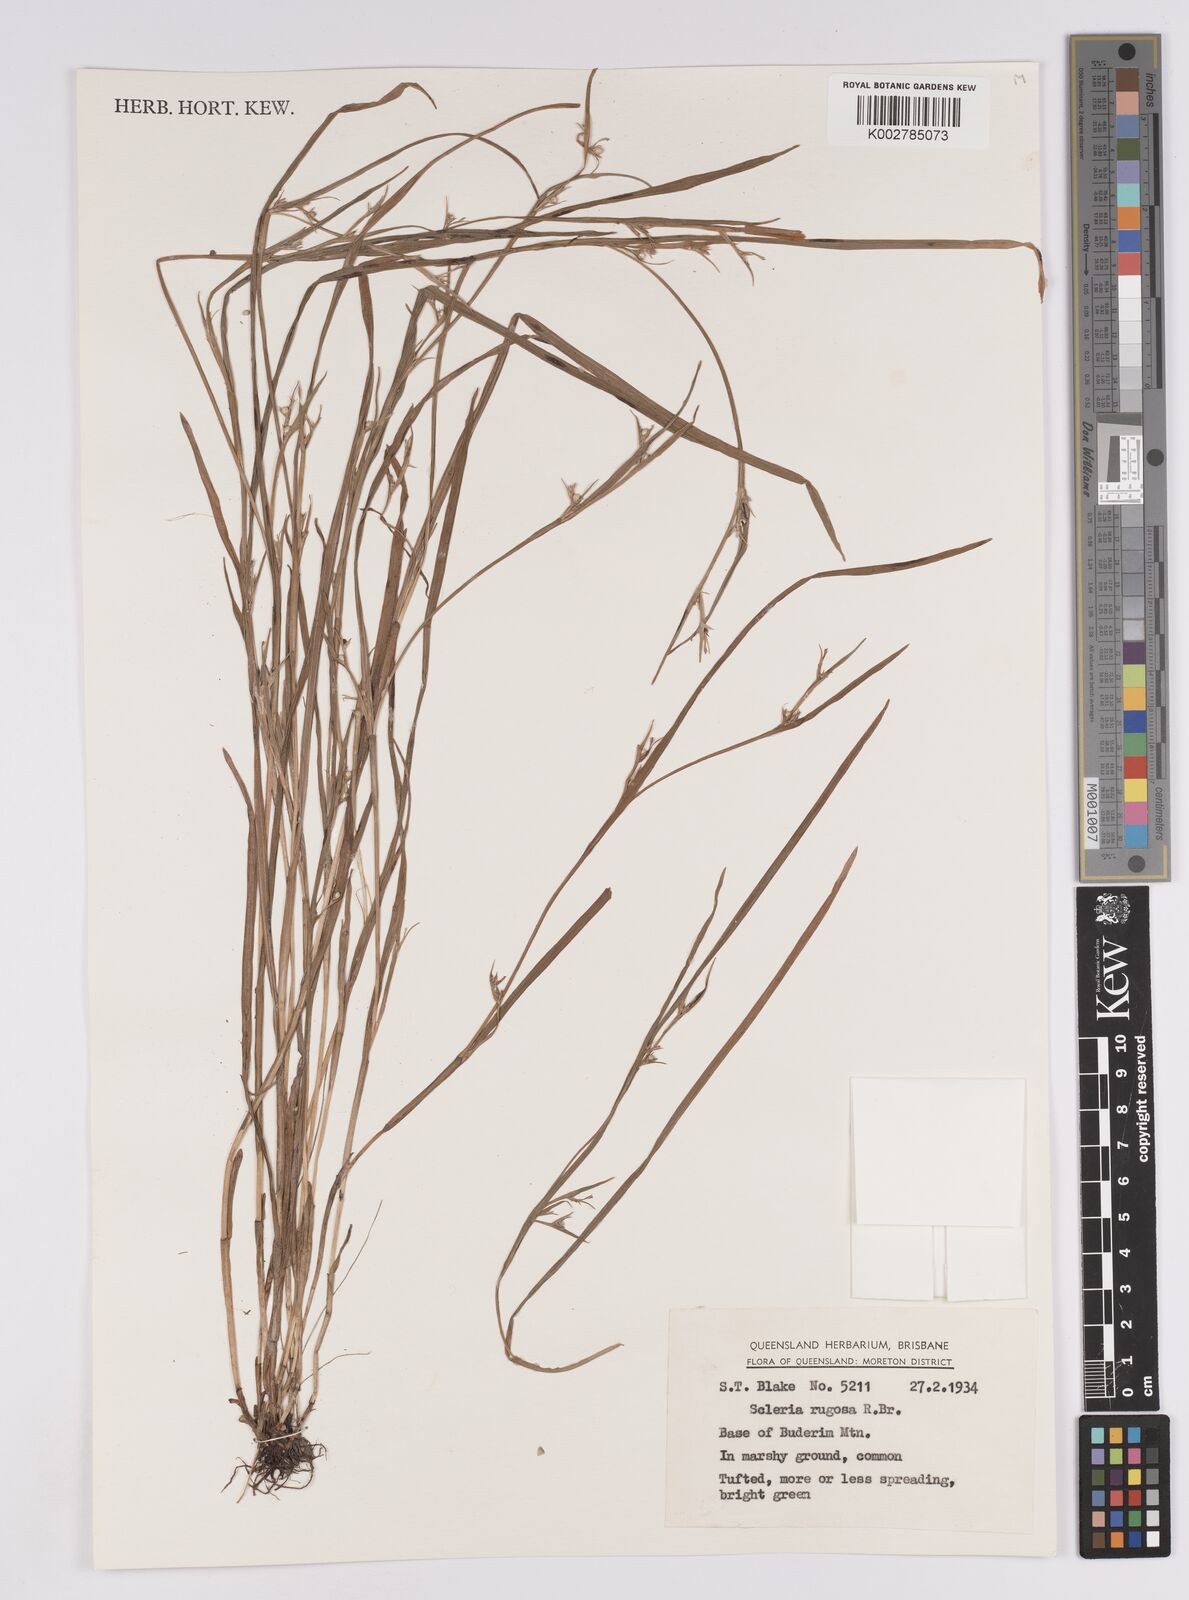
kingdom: Plantae
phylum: Tracheophyta
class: Liliopsida
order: Poales
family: Cyperaceae
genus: Scleria
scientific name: Scleria rugosa
